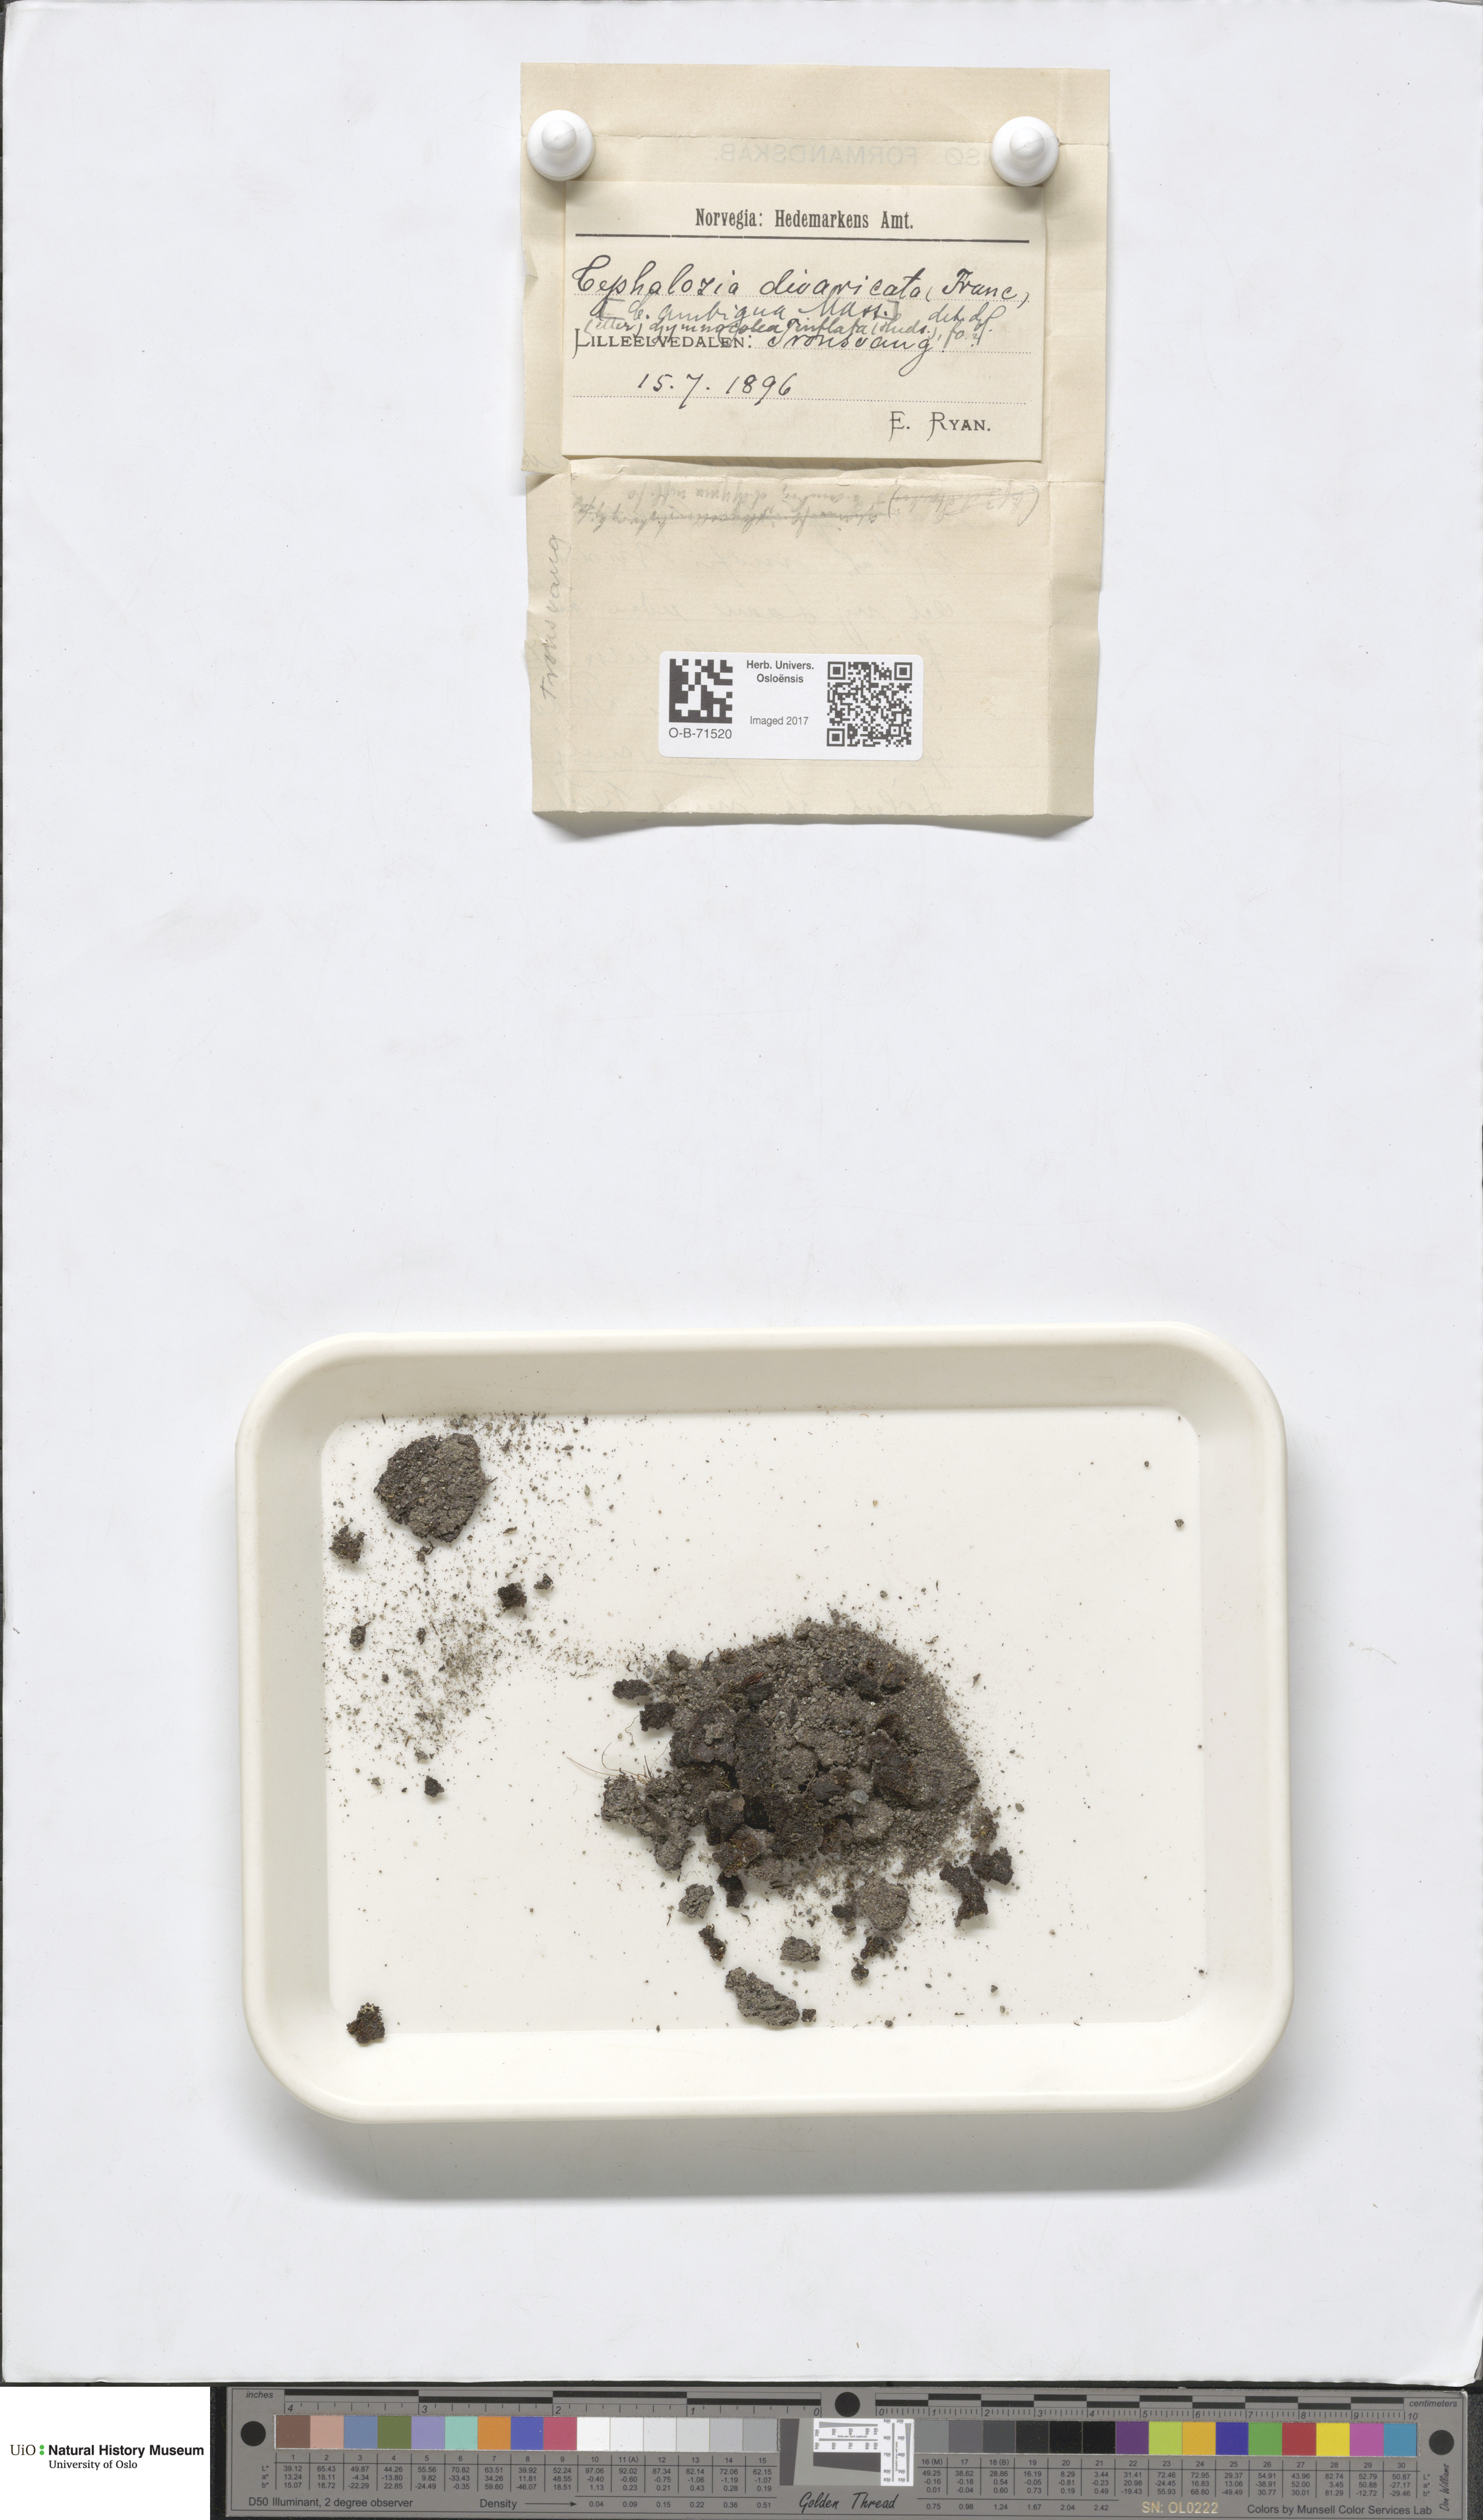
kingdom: Plantae
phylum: Marchantiophyta
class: Jungermanniopsida
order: Jungermanniales
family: Cephaloziaceae
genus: Cephalozia
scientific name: Cephalozia bicuspidata
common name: Two-horned pincerwort
